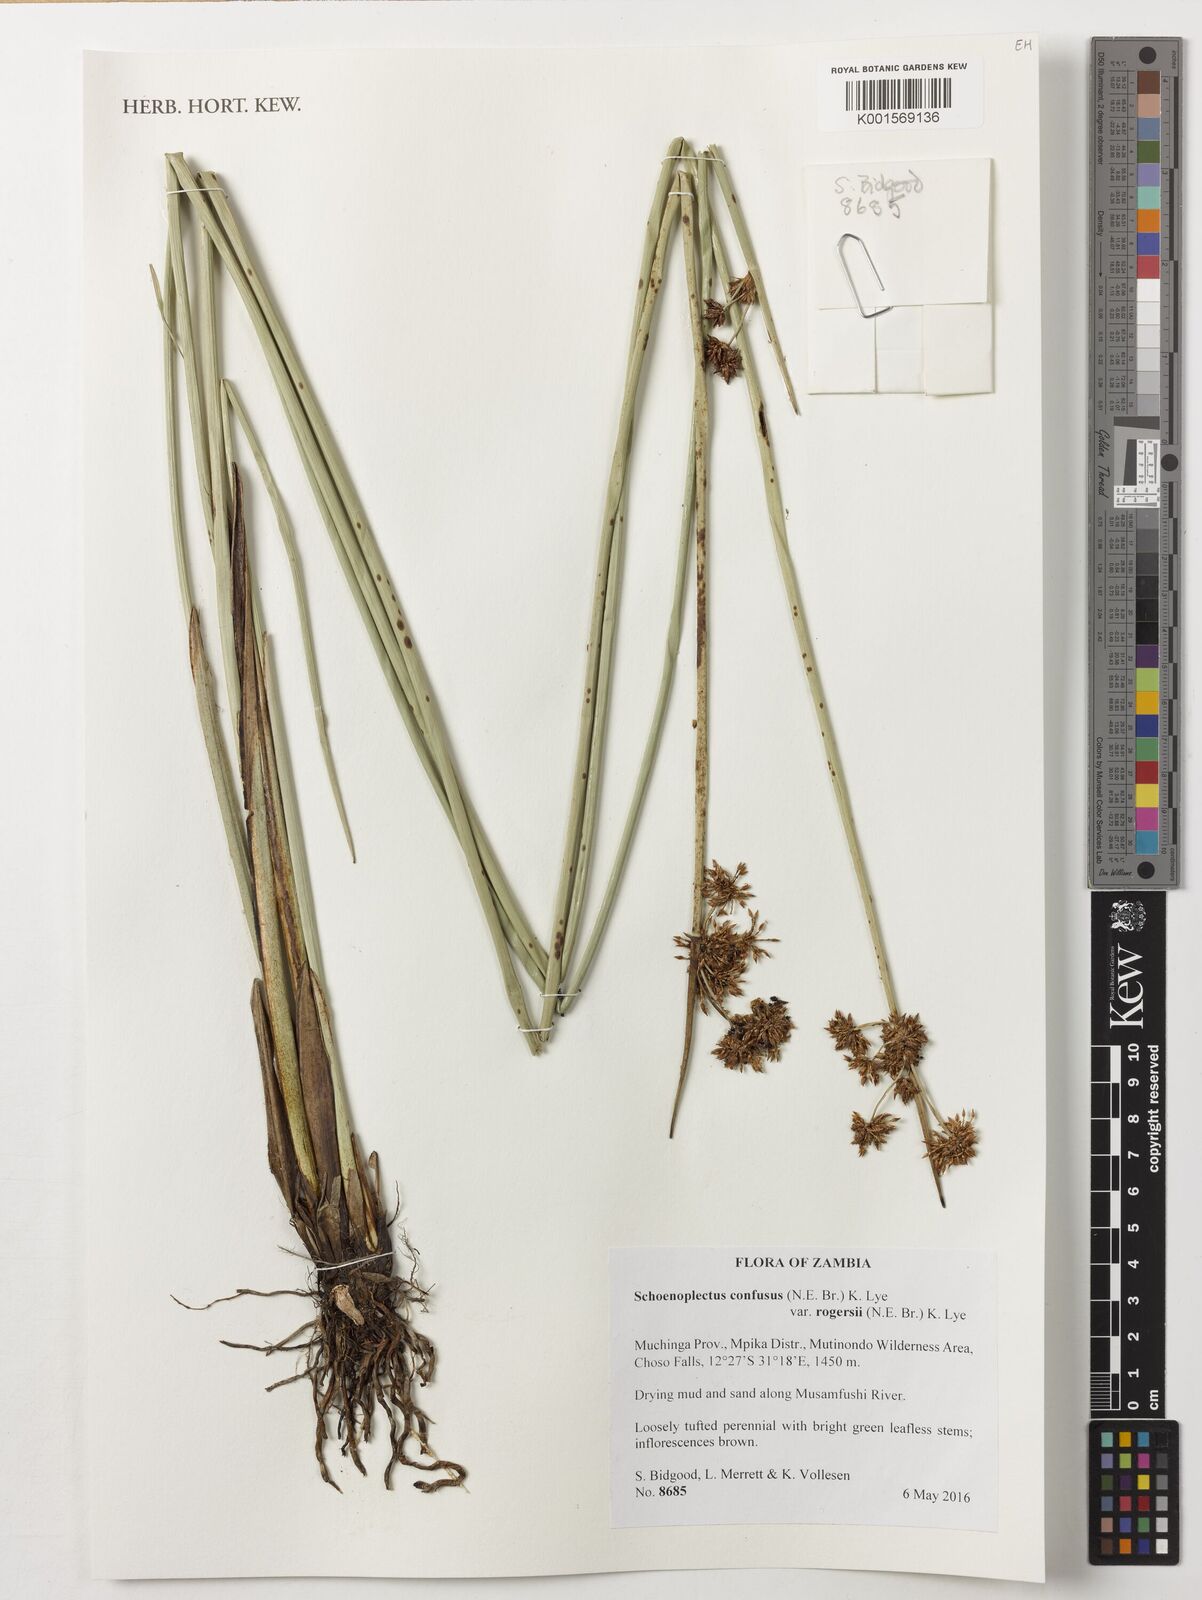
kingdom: Plantae
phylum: Tracheophyta
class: Liliopsida
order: Poales
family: Cyperaceae
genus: Schoenoplectiella
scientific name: Schoenoplectiella confusa
